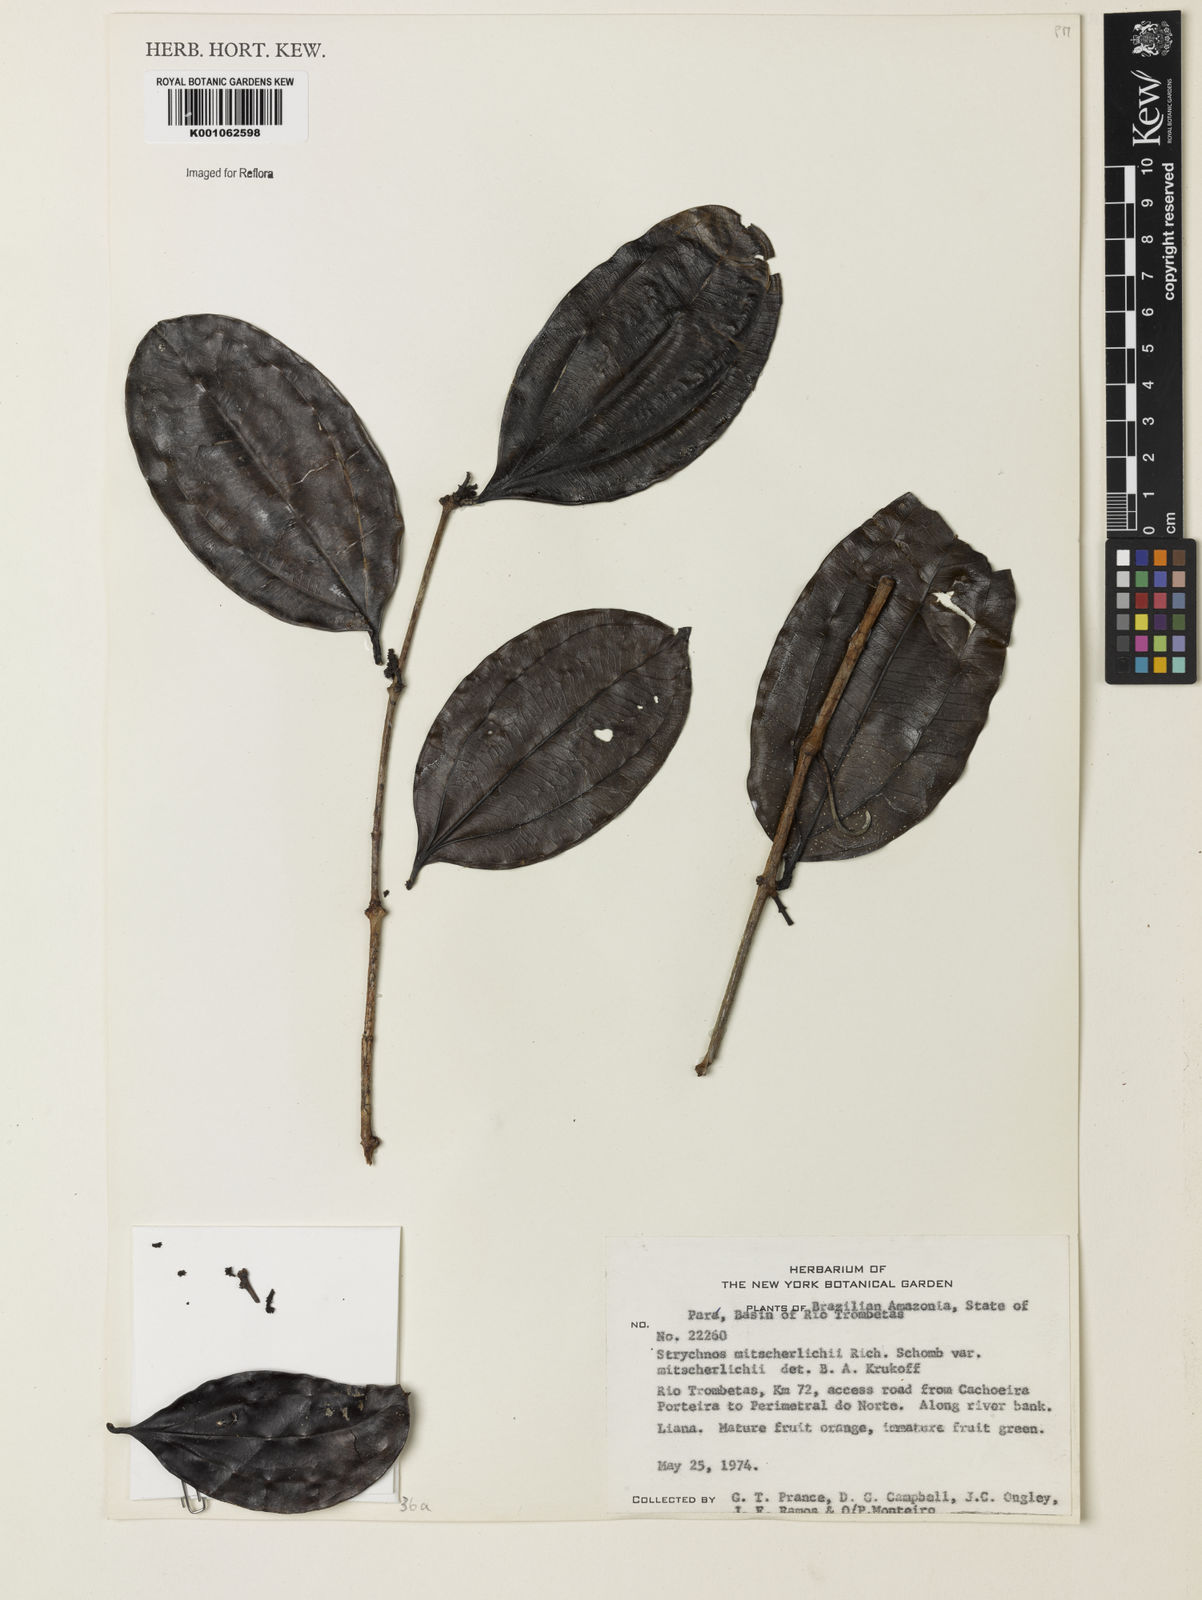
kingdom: Plantae
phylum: Tracheophyta
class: Magnoliopsida
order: Gentianales
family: Loganiaceae
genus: Strychnos
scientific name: Strychnos mitscherlichii
